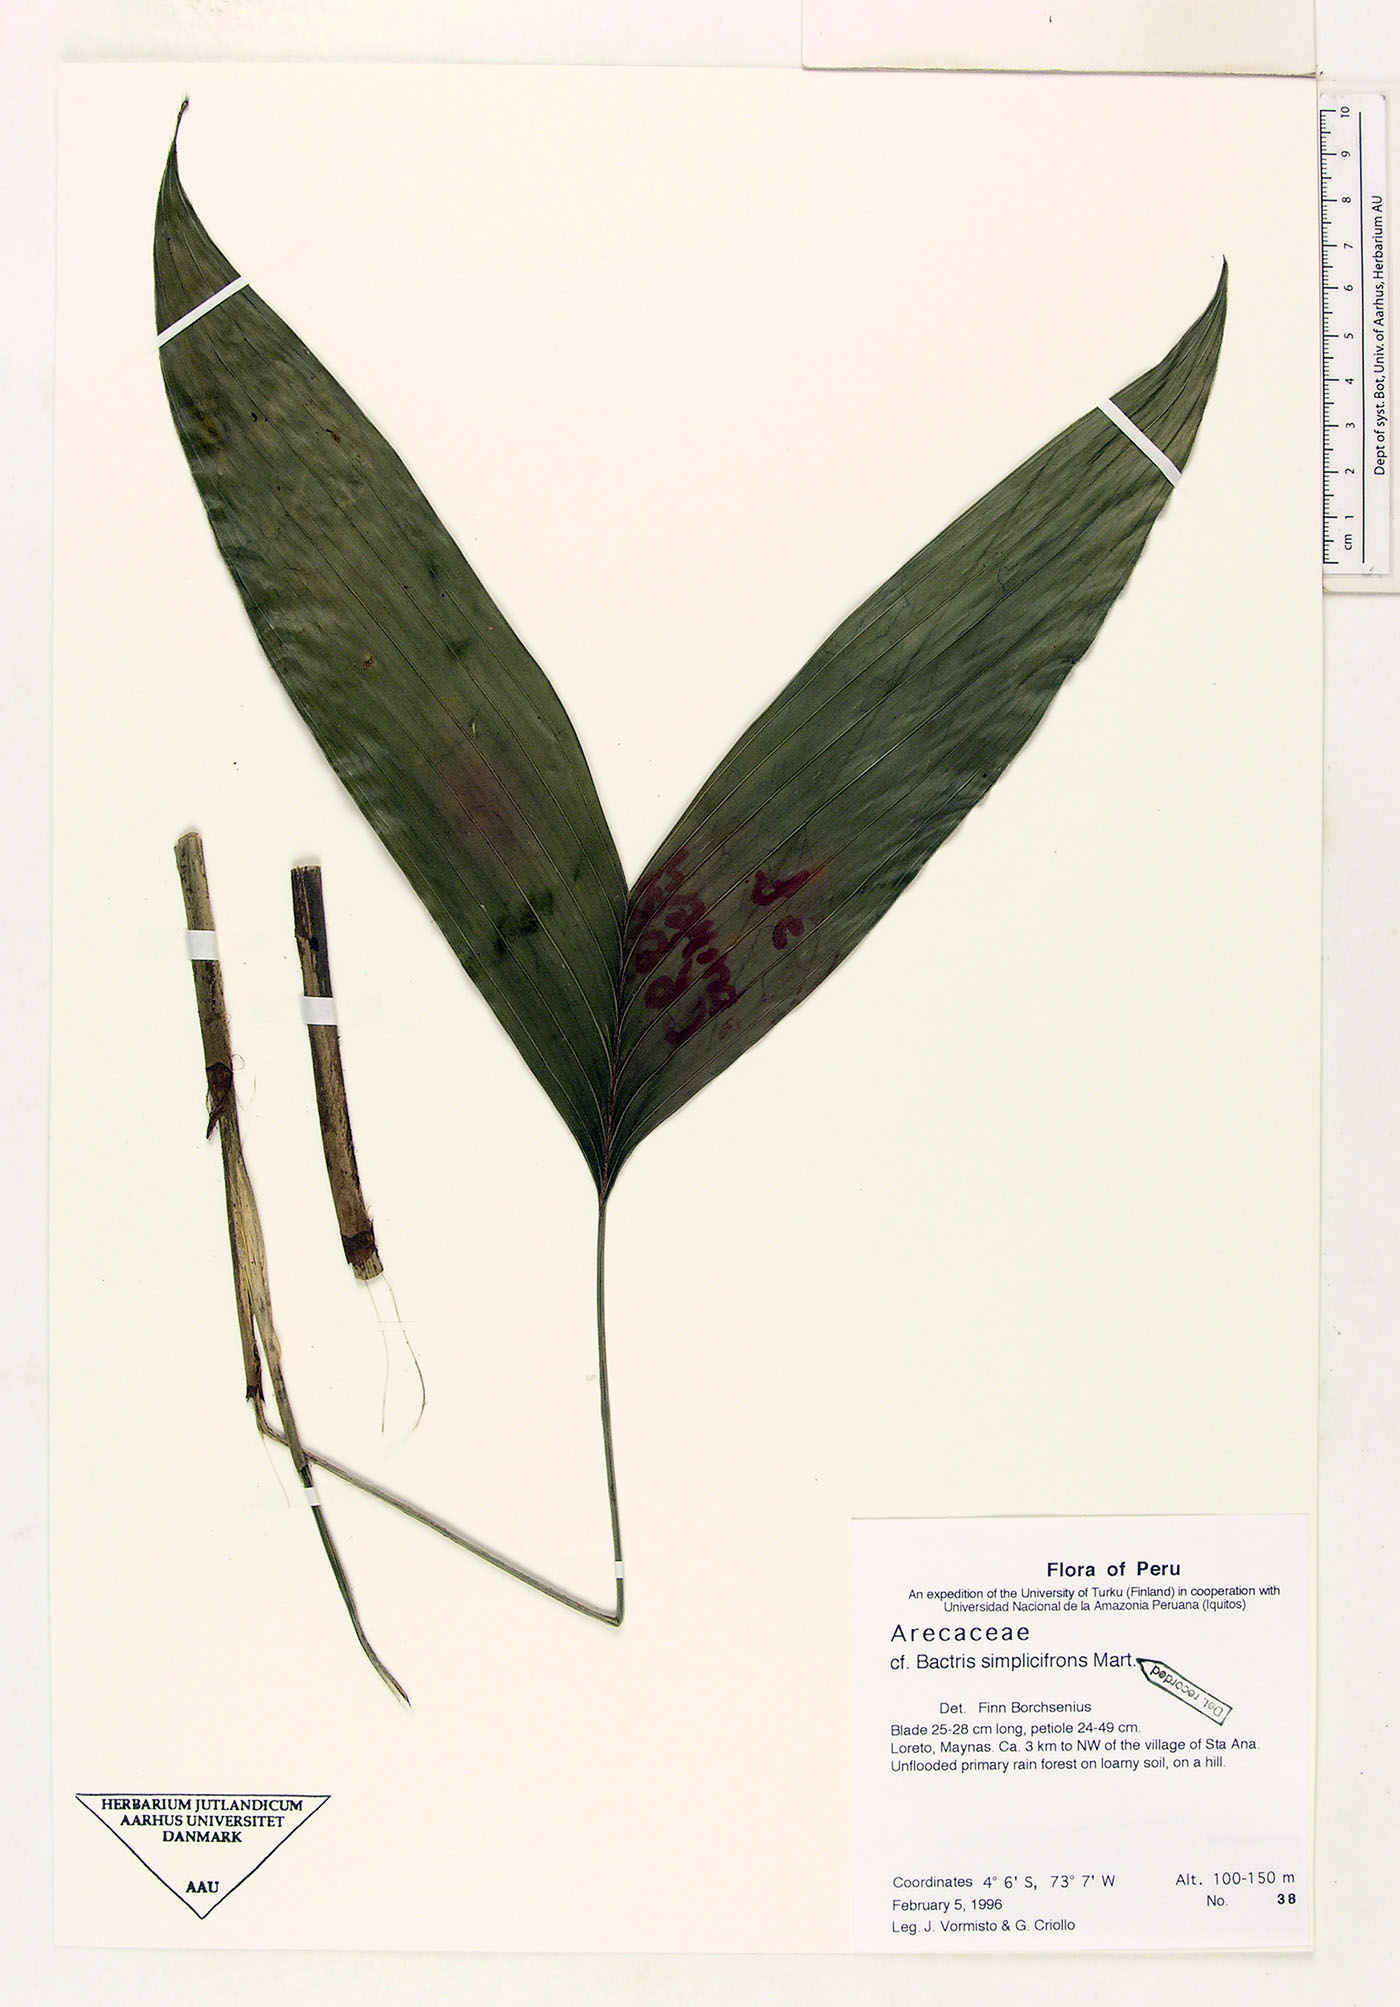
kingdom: Plantae
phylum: Tracheophyta
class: Liliopsida
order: Arecales
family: Arecaceae
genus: Bactris
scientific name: Bactris simplicifrons
